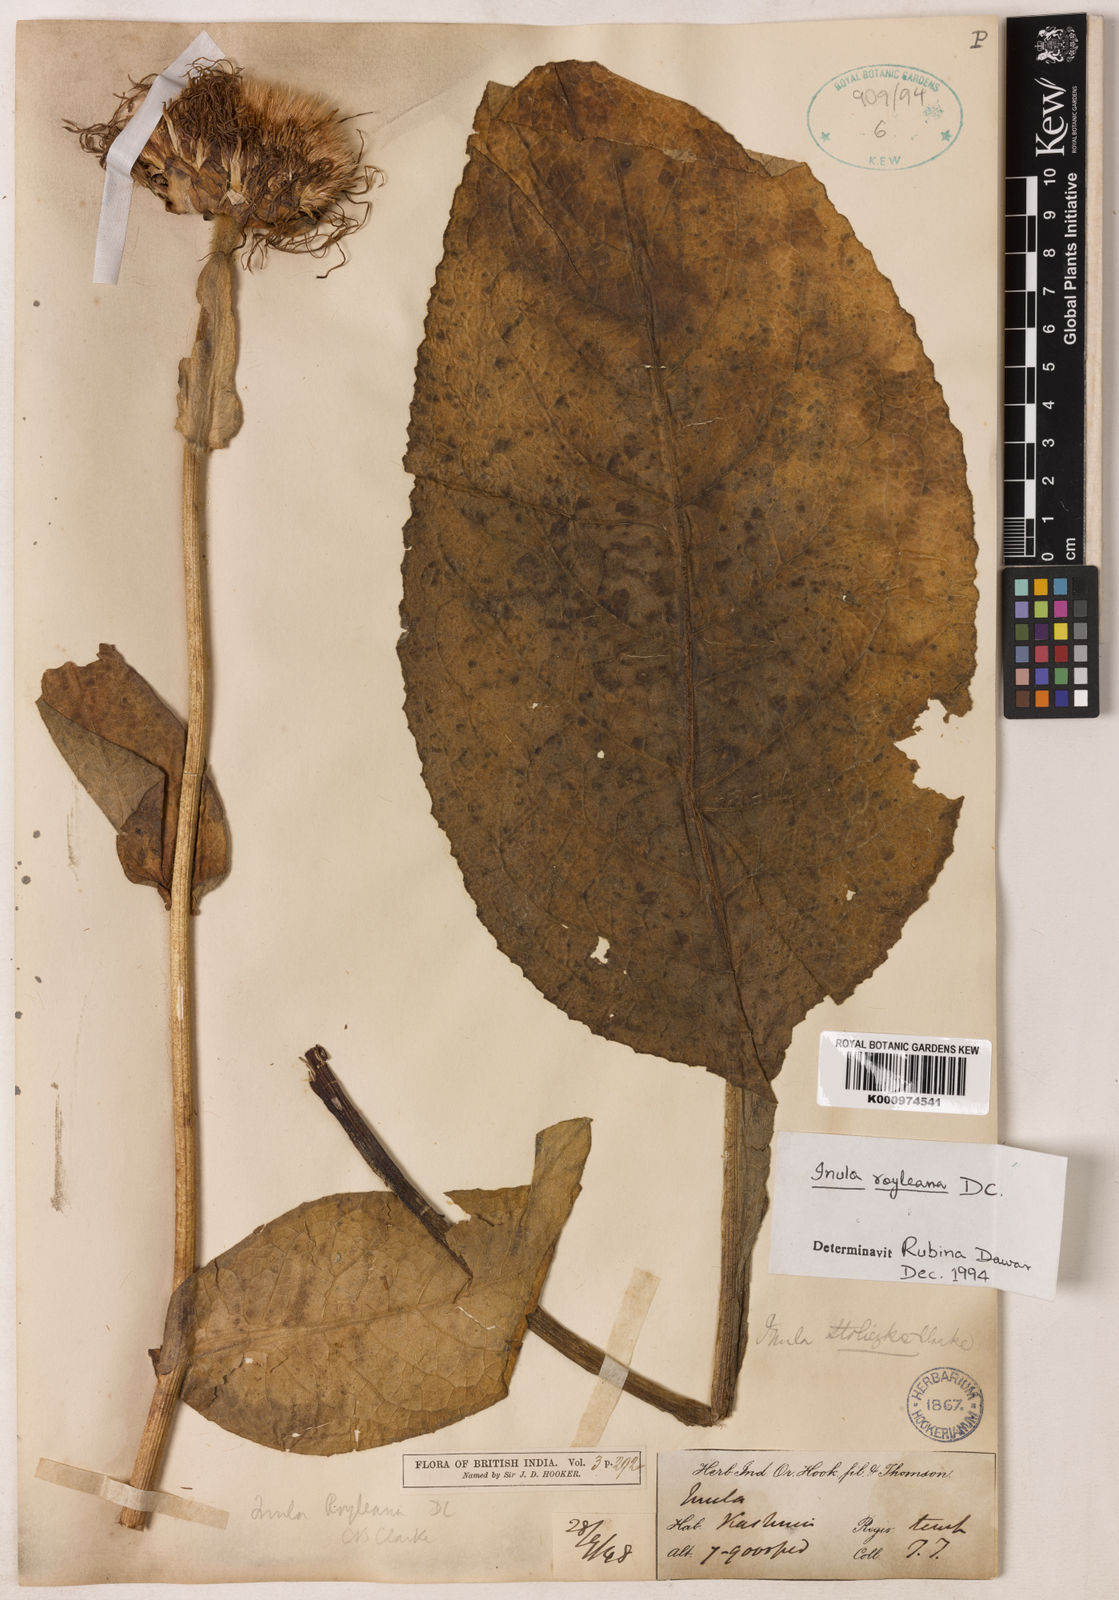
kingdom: Plantae
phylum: Tracheophyta
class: Magnoliopsida
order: Asterales
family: Asteraceae
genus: Inula
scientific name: Inula royleana
